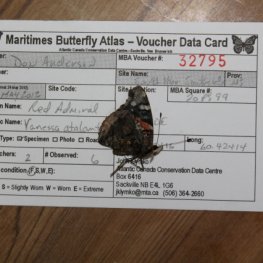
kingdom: Animalia
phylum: Arthropoda
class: Insecta
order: Lepidoptera
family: Nymphalidae
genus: Vanessa
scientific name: Vanessa atalanta
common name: Red Admiral
